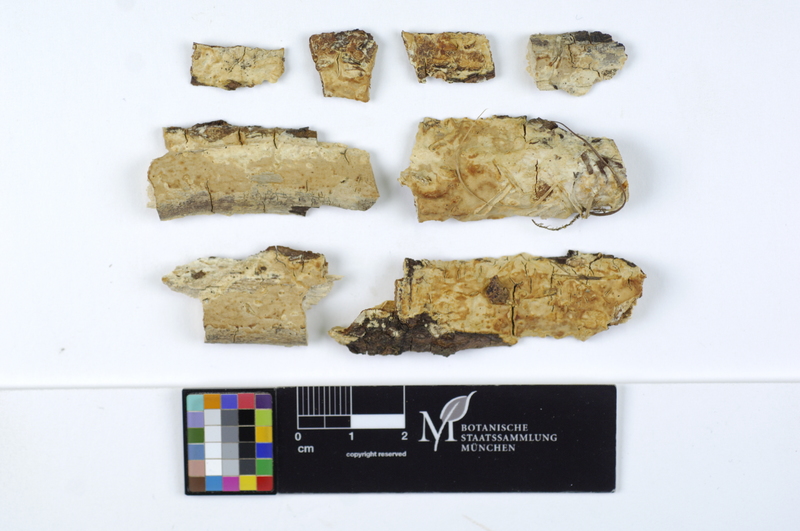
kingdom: Fungi
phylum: Basidiomycota
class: Agaricomycetes
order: Russulales
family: Stereaceae
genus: Megalocystidium
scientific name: Megalocystidium leucoxanthum
